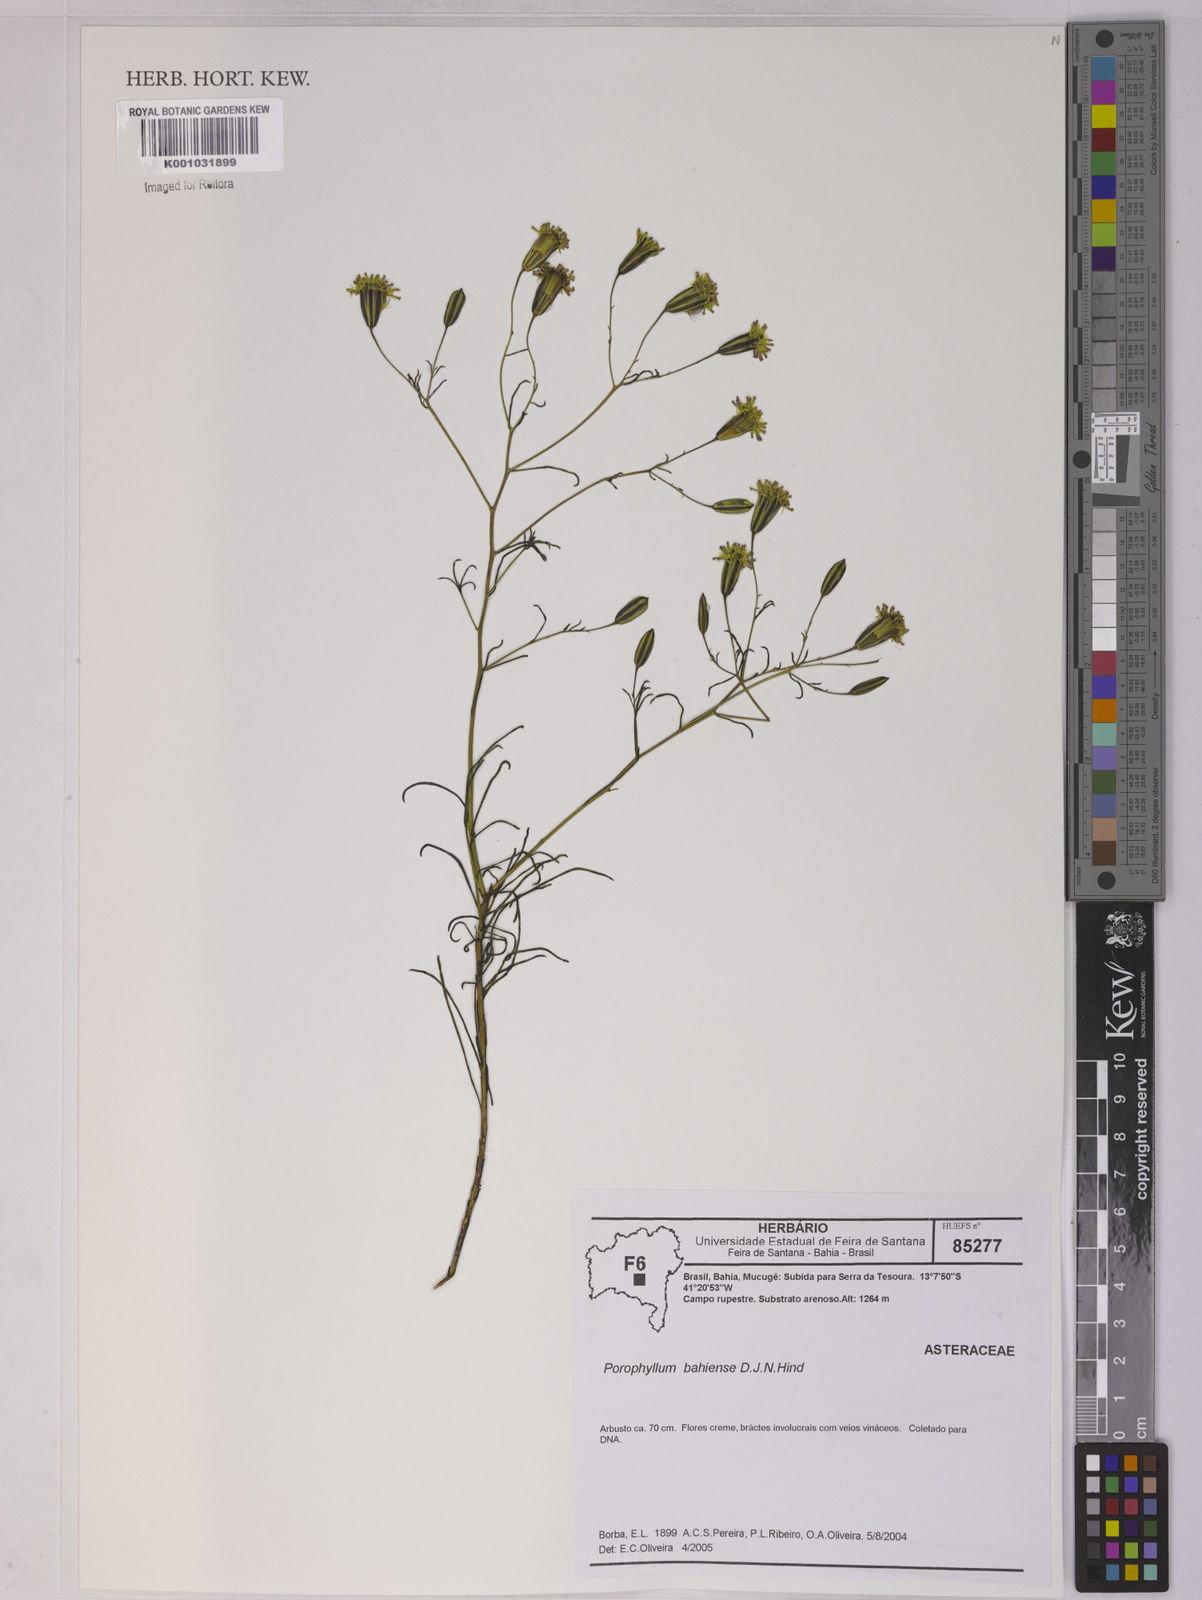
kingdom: Plantae
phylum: Tracheophyta
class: Magnoliopsida
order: Asterales
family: Asteraceae
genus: Porophyllum
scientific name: Porophyllum bahiense
